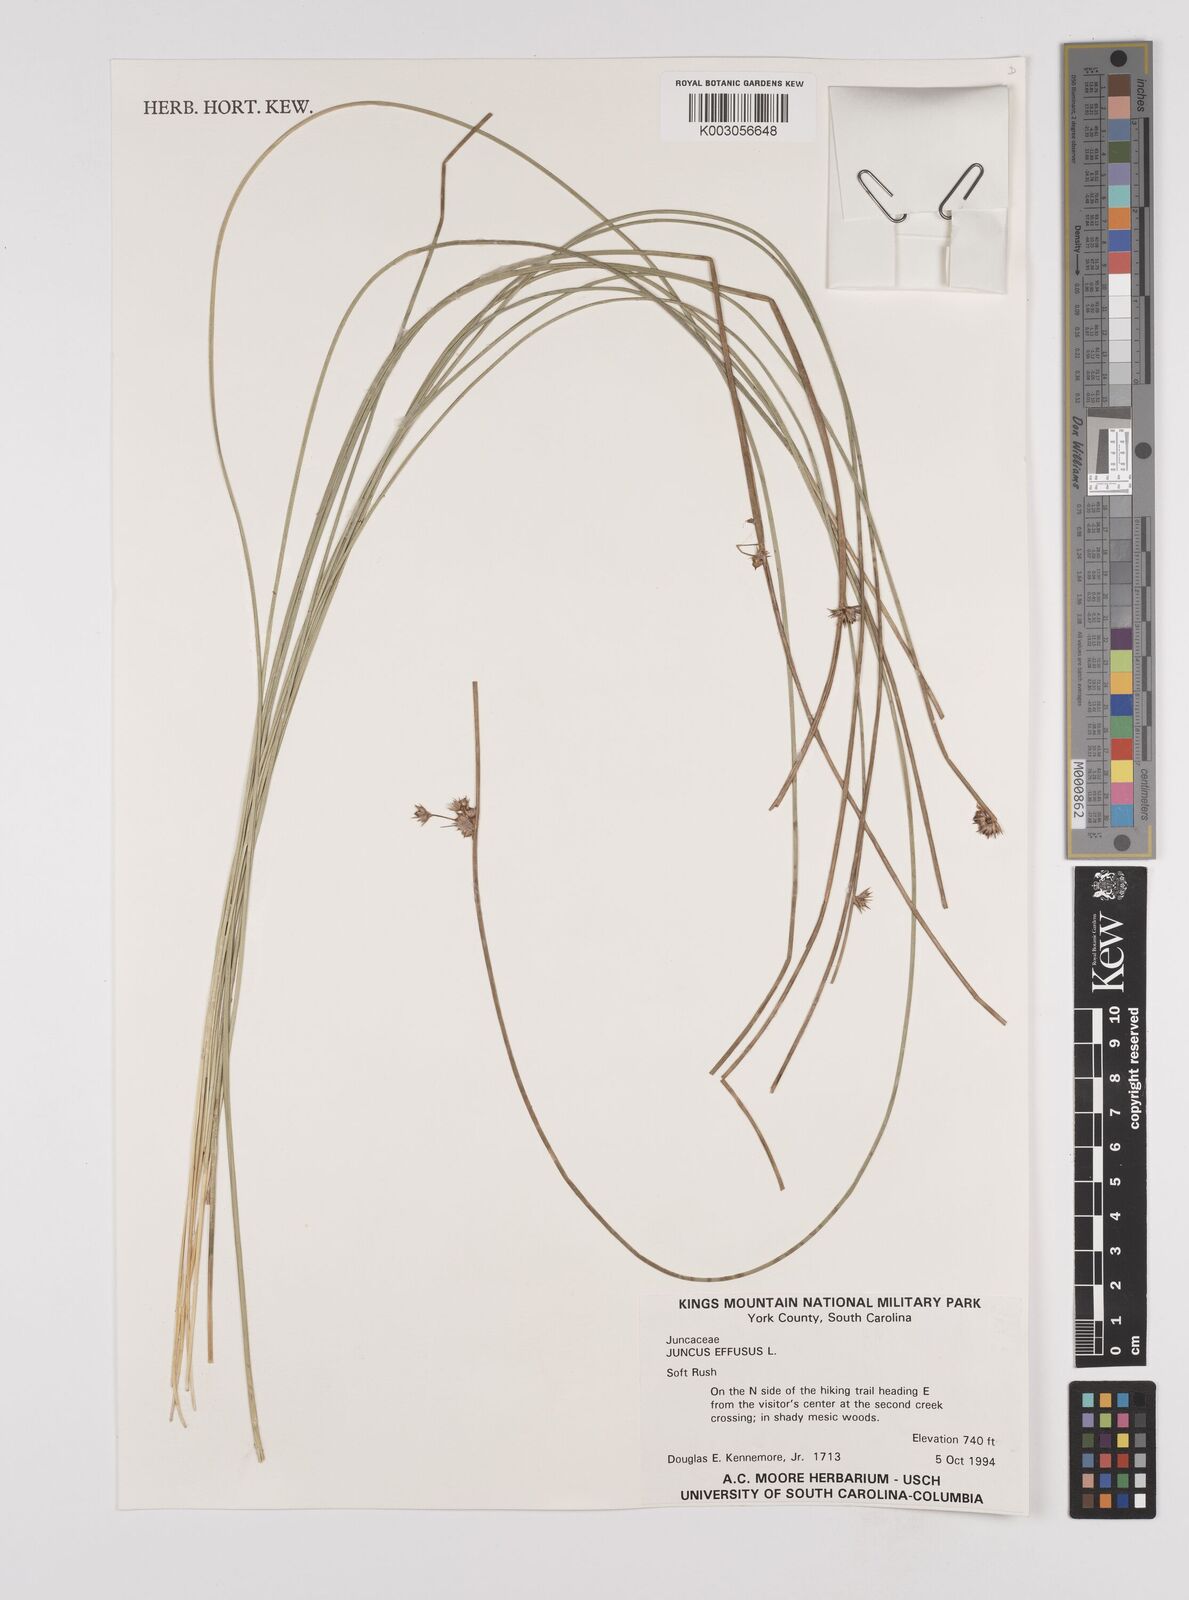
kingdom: Plantae
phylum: Tracheophyta
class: Liliopsida
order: Poales
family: Juncaceae
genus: Juncus
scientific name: Juncus effusus
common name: Soft rush
